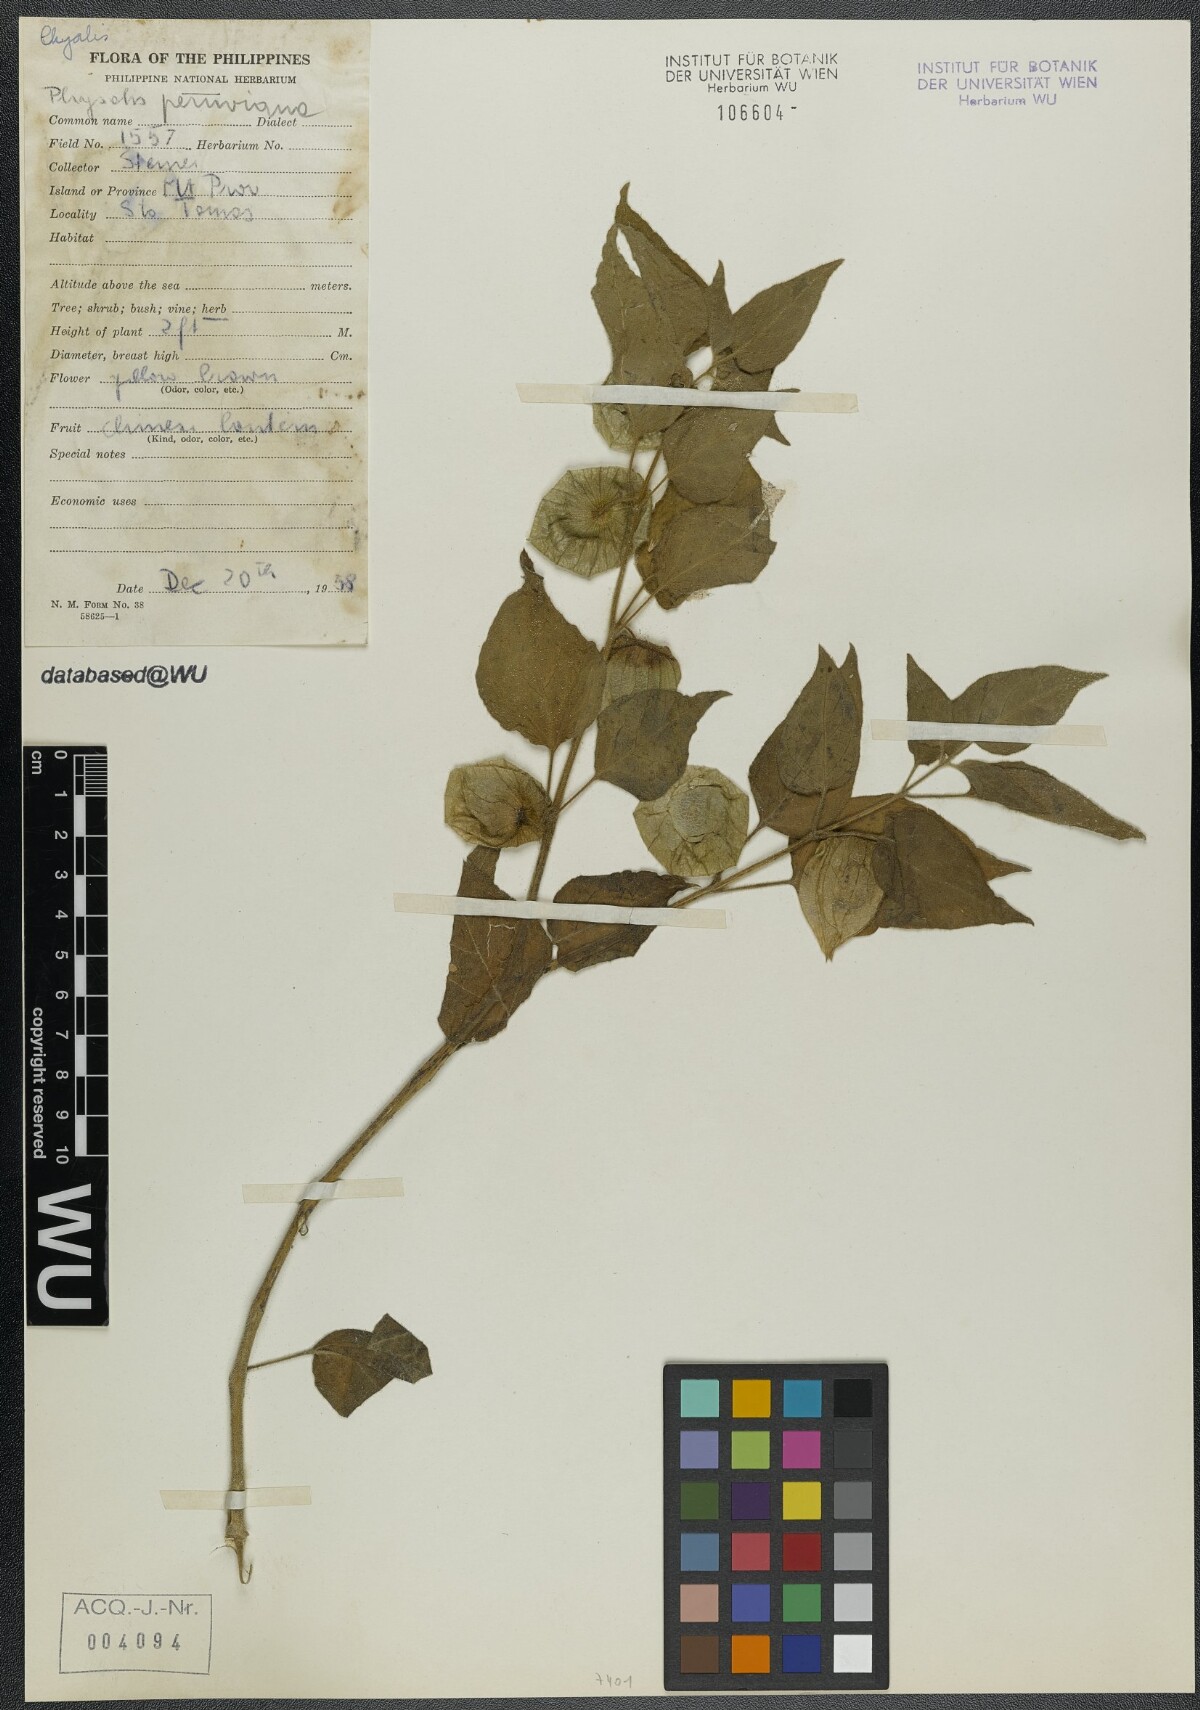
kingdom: Plantae
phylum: Tracheophyta
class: Magnoliopsida
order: Solanales
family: Solanaceae
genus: Physalis
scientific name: Physalis peruviana
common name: Cape-gooseberry
